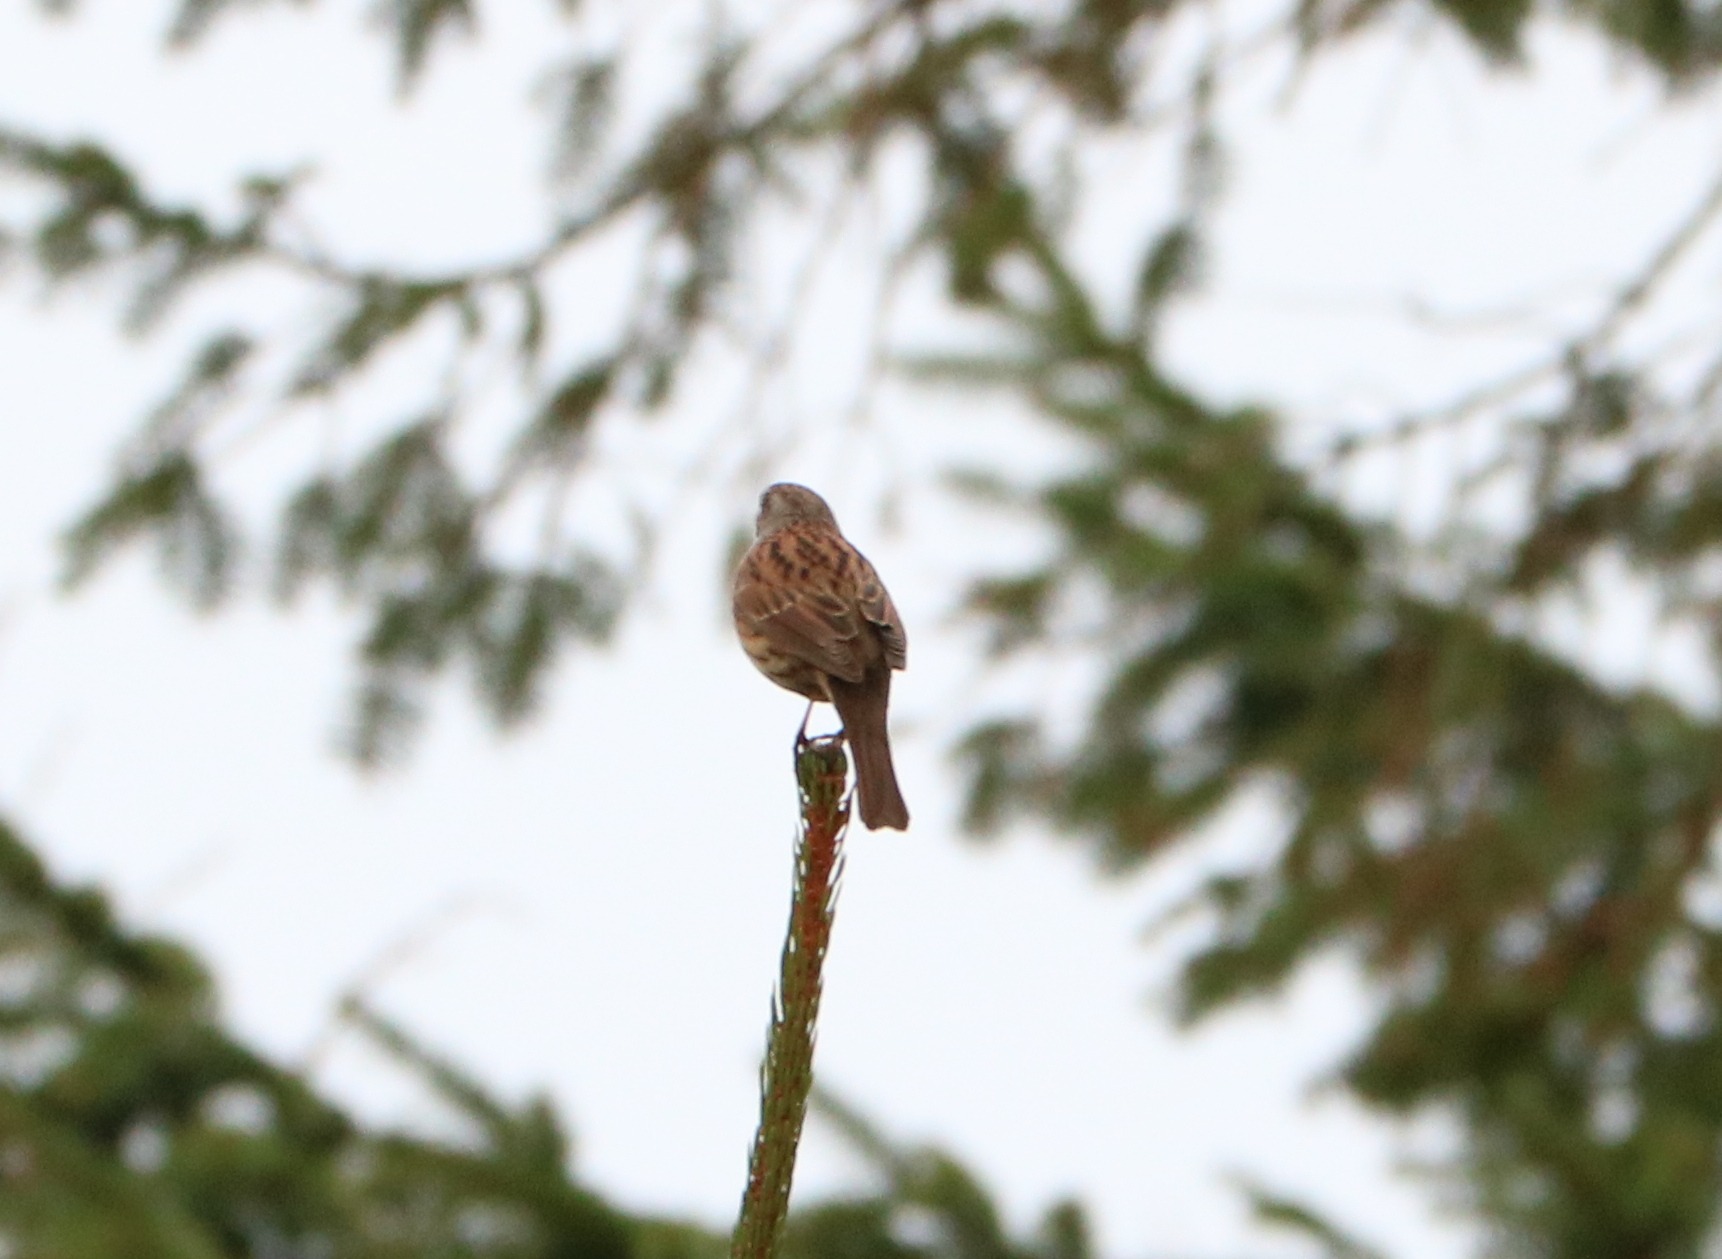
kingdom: Animalia
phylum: Chordata
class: Aves
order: Passeriformes
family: Prunellidae
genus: Prunella
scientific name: Prunella modularis
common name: Jernspurv
